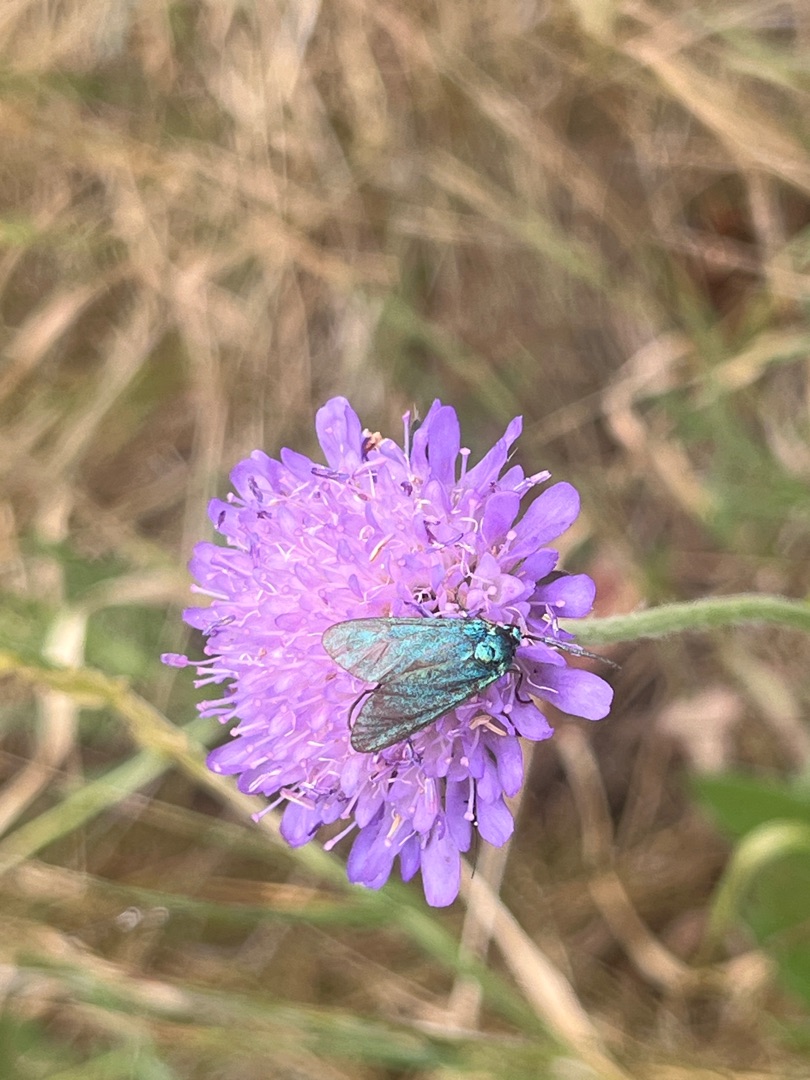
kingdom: Animalia
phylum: Arthropoda
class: Insecta
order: Lepidoptera
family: Zygaenidae
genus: Adscita
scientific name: Adscita statices
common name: Metalvinge
